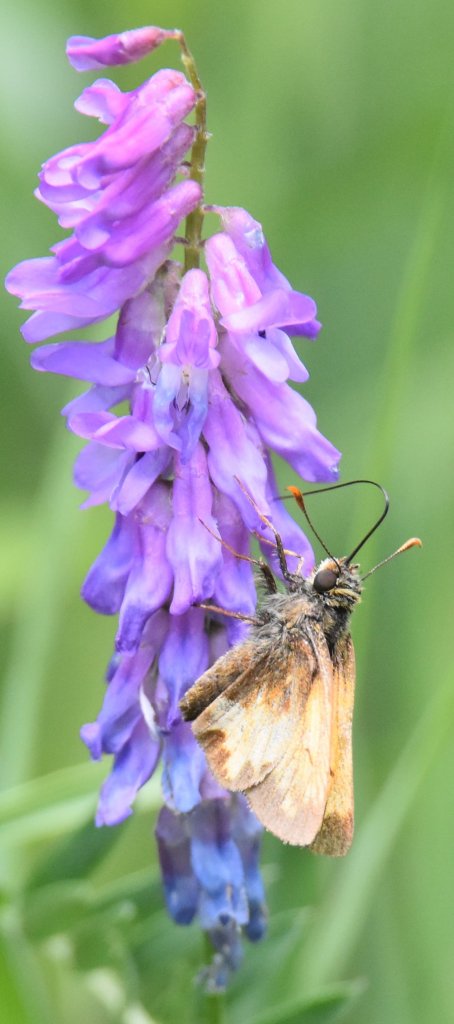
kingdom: Animalia
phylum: Arthropoda
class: Insecta
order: Lepidoptera
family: Hesperiidae
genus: Lon
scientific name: Lon hobomok
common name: Hobomok Skipper
